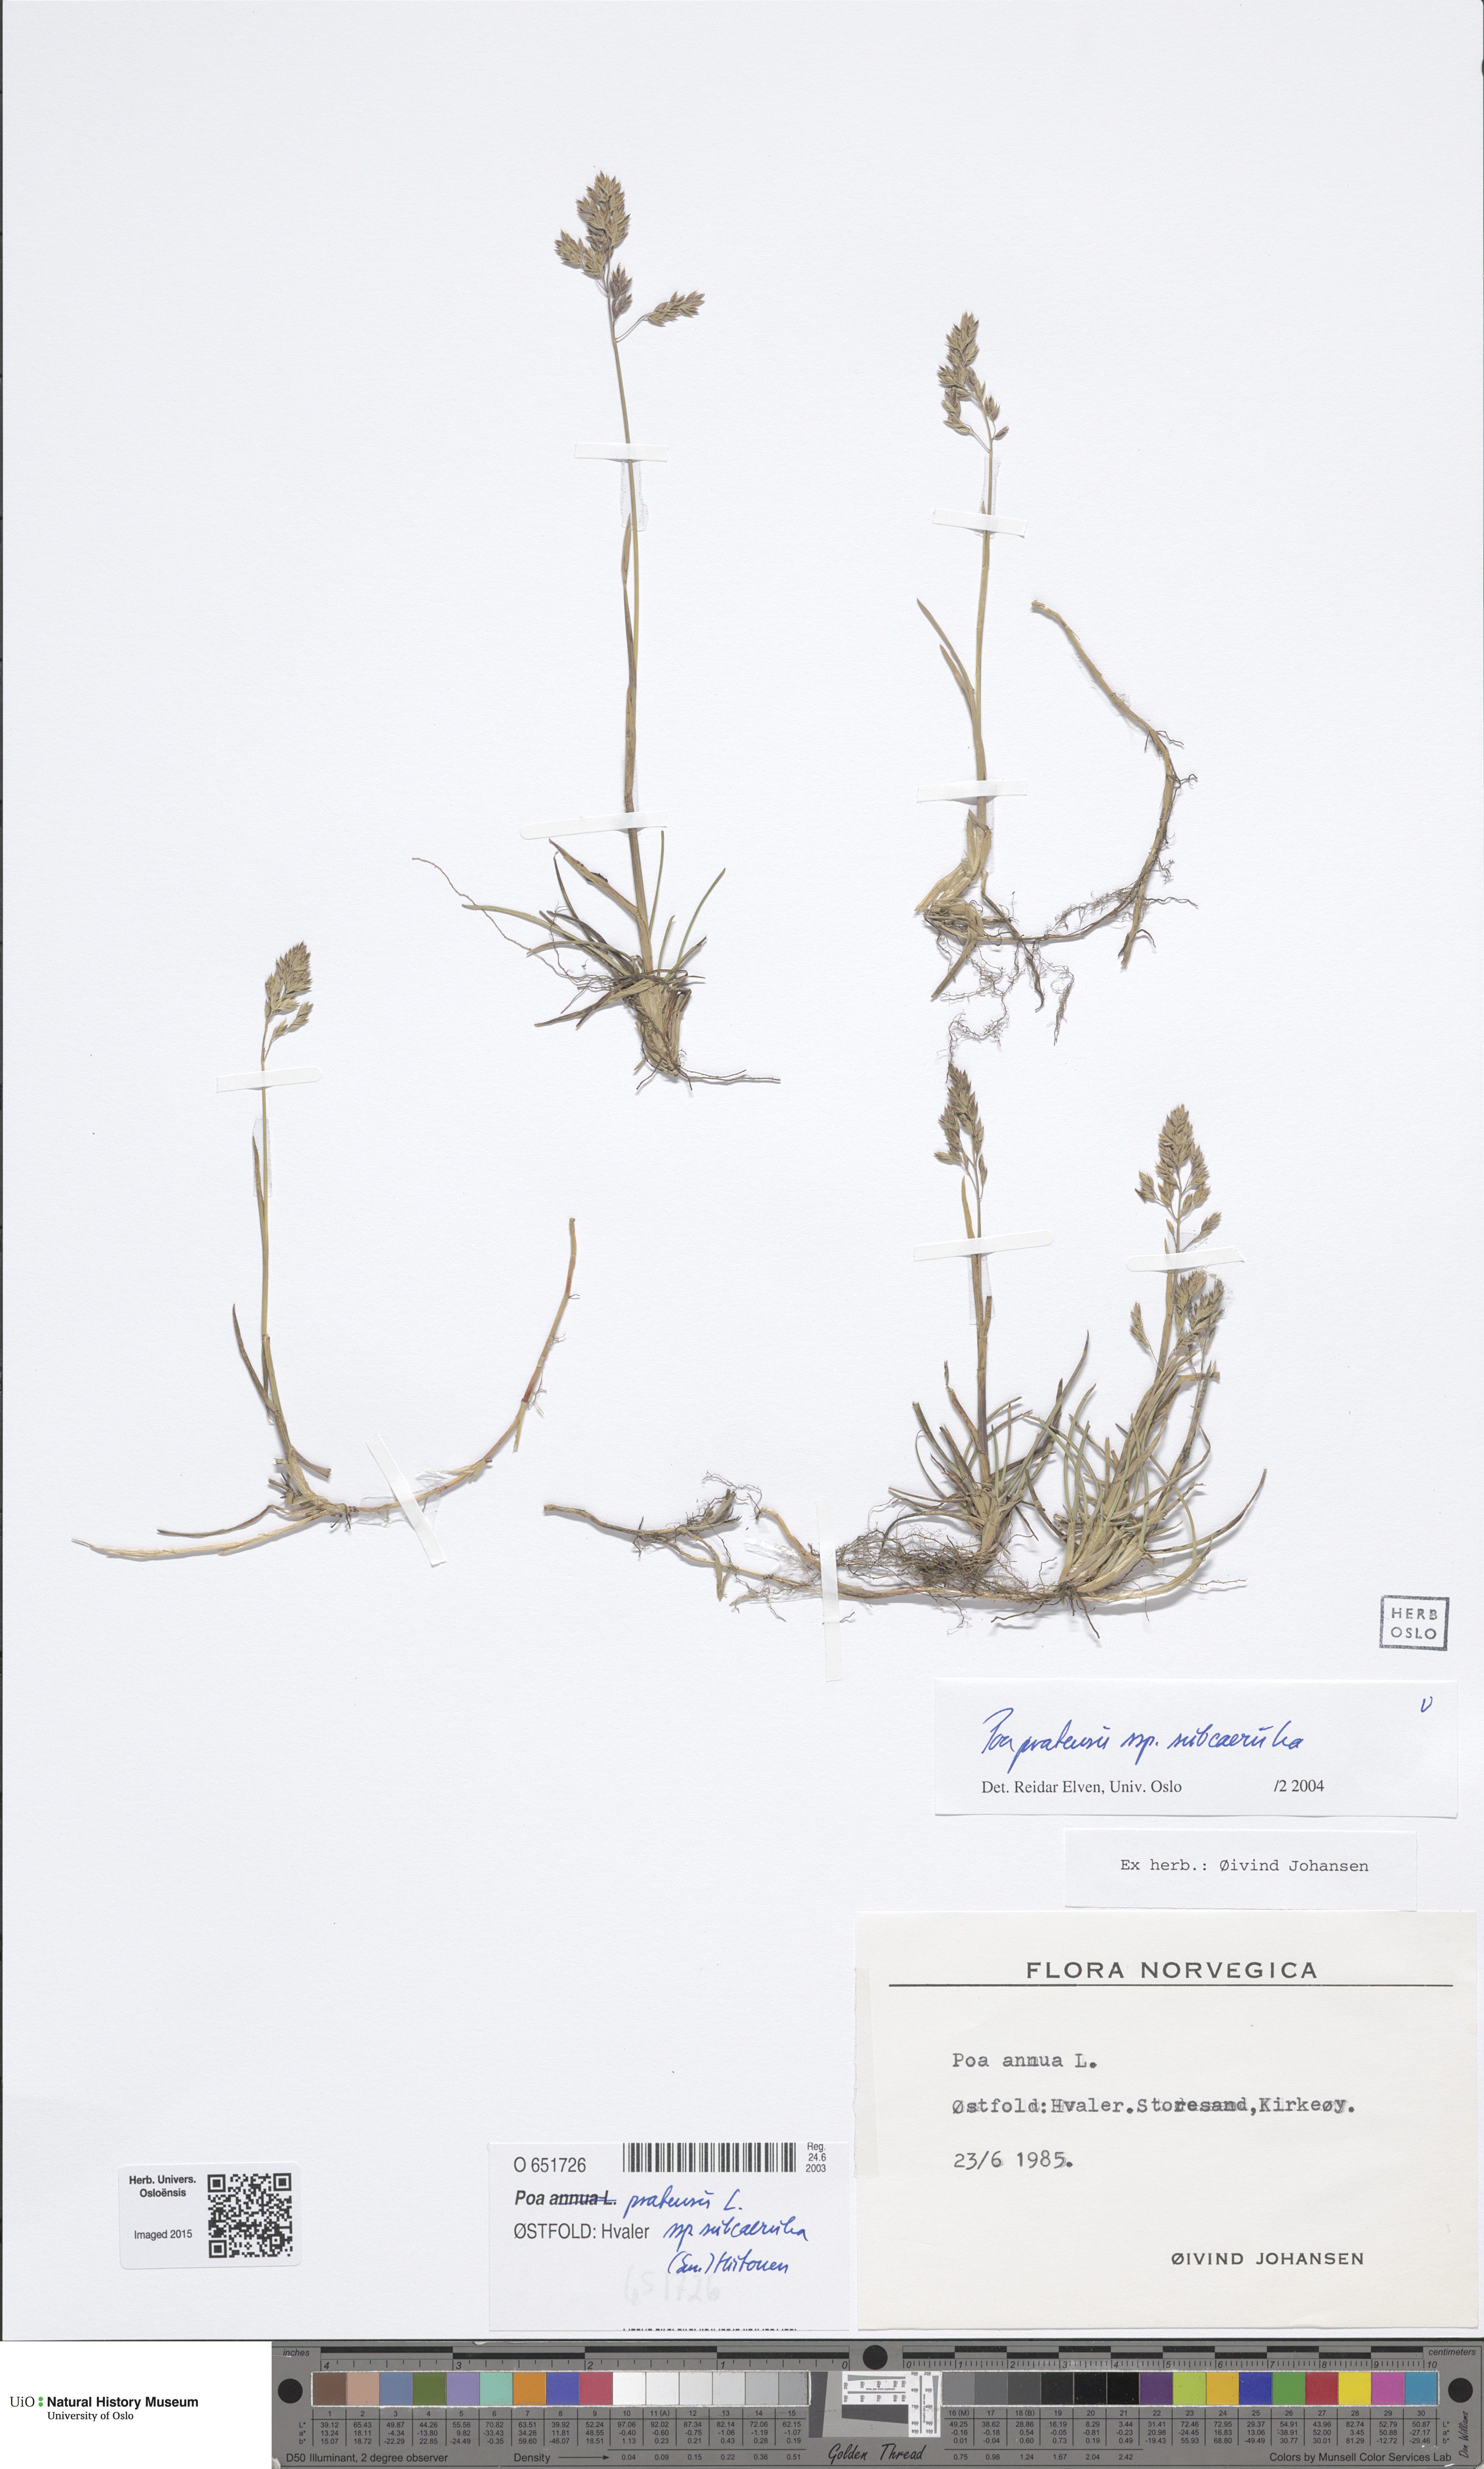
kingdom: Plantae
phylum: Tracheophyta
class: Liliopsida
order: Poales
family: Poaceae
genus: Poa
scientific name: Poa humilis
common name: Spreading meadow-grass
